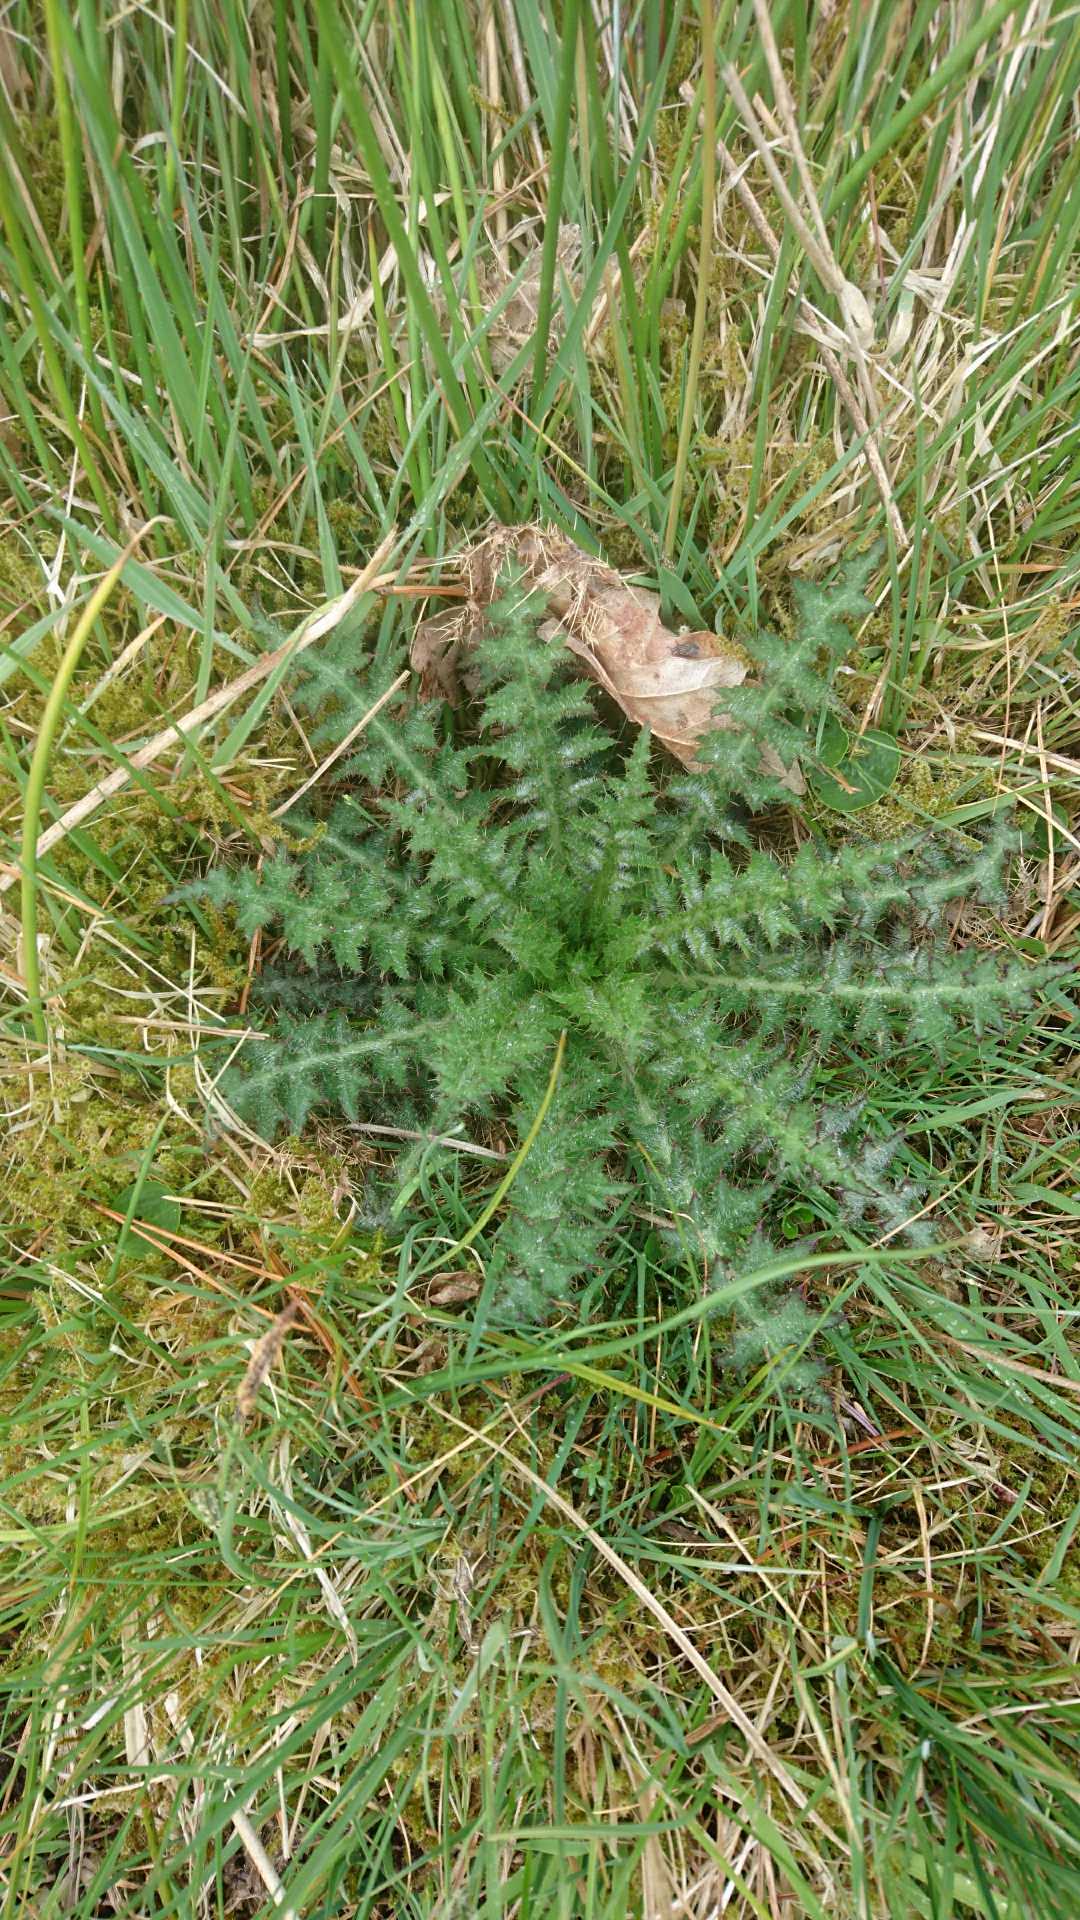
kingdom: Plantae
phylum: Tracheophyta
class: Magnoliopsida
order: Asterales
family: Asteraceae
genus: Cirsium
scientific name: Cirsium palustre
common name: Kær-tidsel
